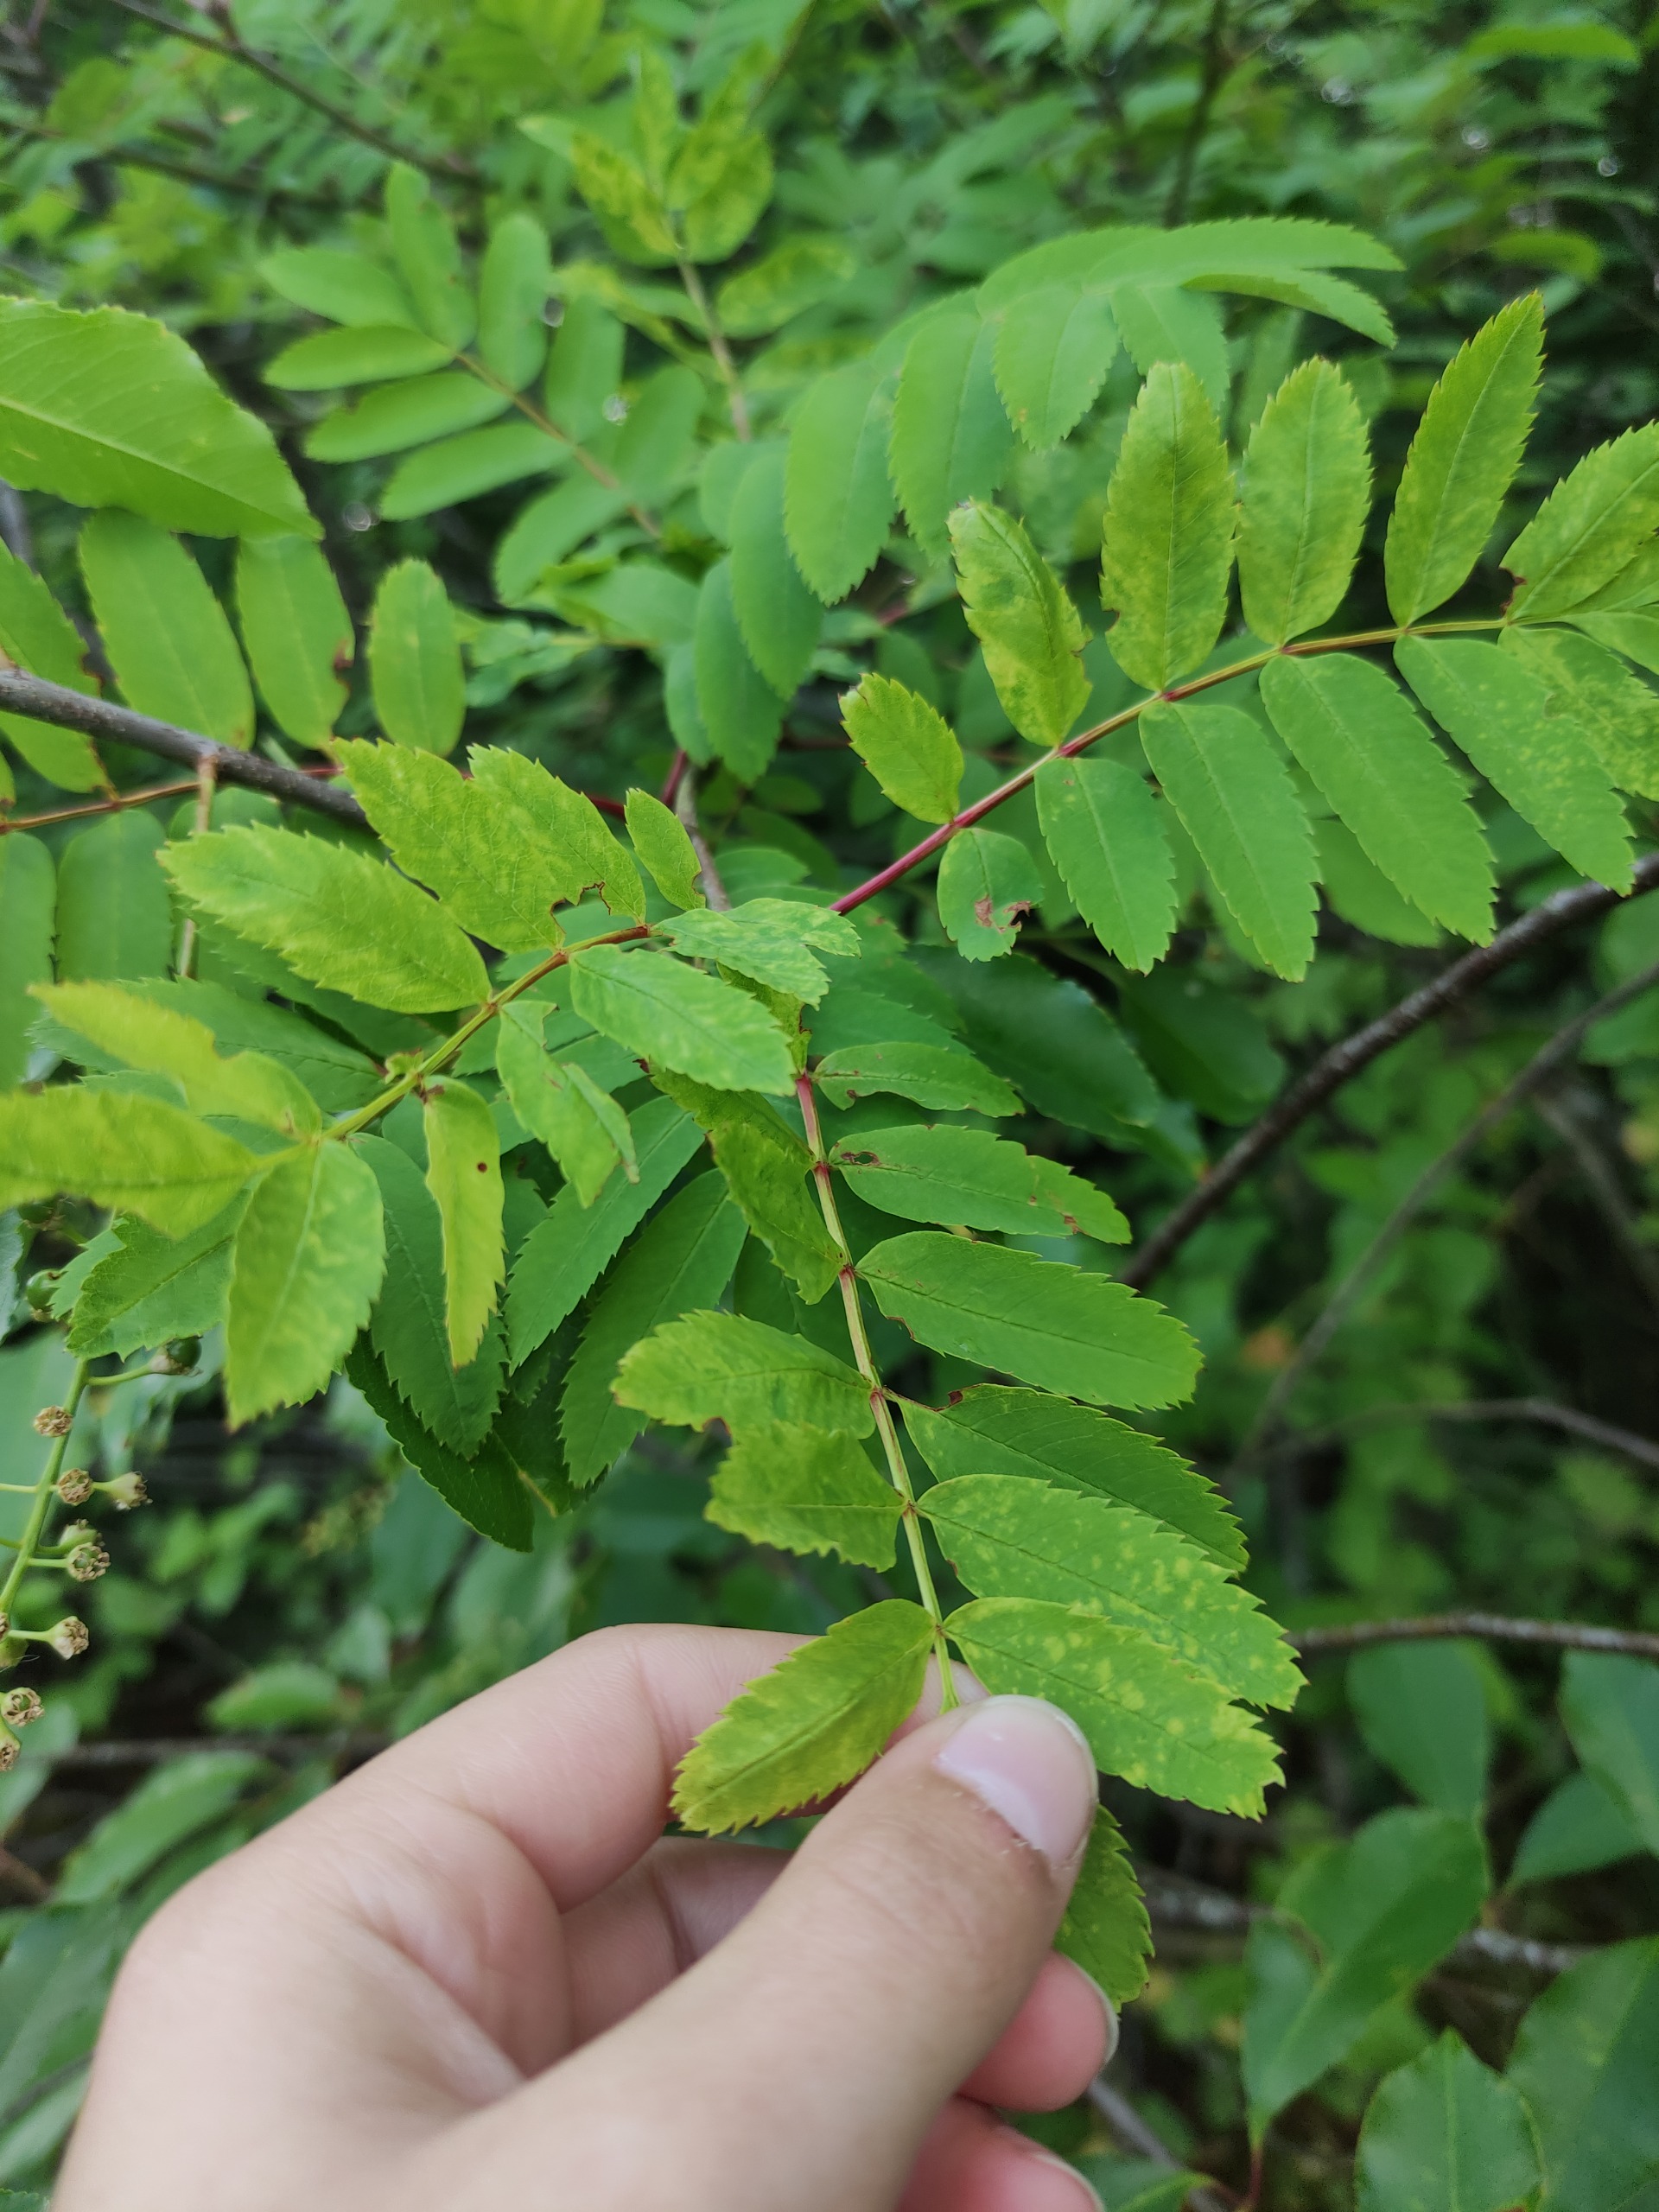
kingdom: Plantae
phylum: Tracheophyta
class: Magnoliopsida
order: Rosales
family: Rosaceae
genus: Sorbus
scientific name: Sorbus aucuparia
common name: Almindelig røn
